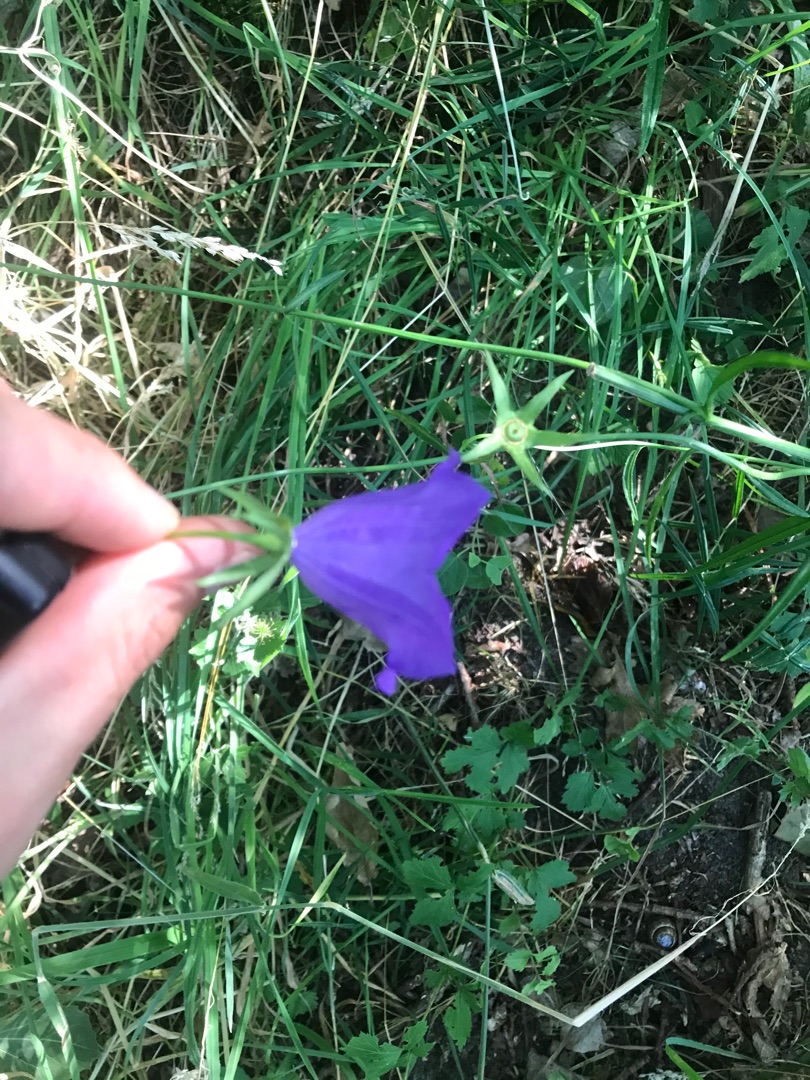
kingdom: Plantae
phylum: Tracheophyta
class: Magnoliopsida
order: Asterales
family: Campanulaceae
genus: Campanula
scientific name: Campanula persicifolia
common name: Smalbladet klokke
